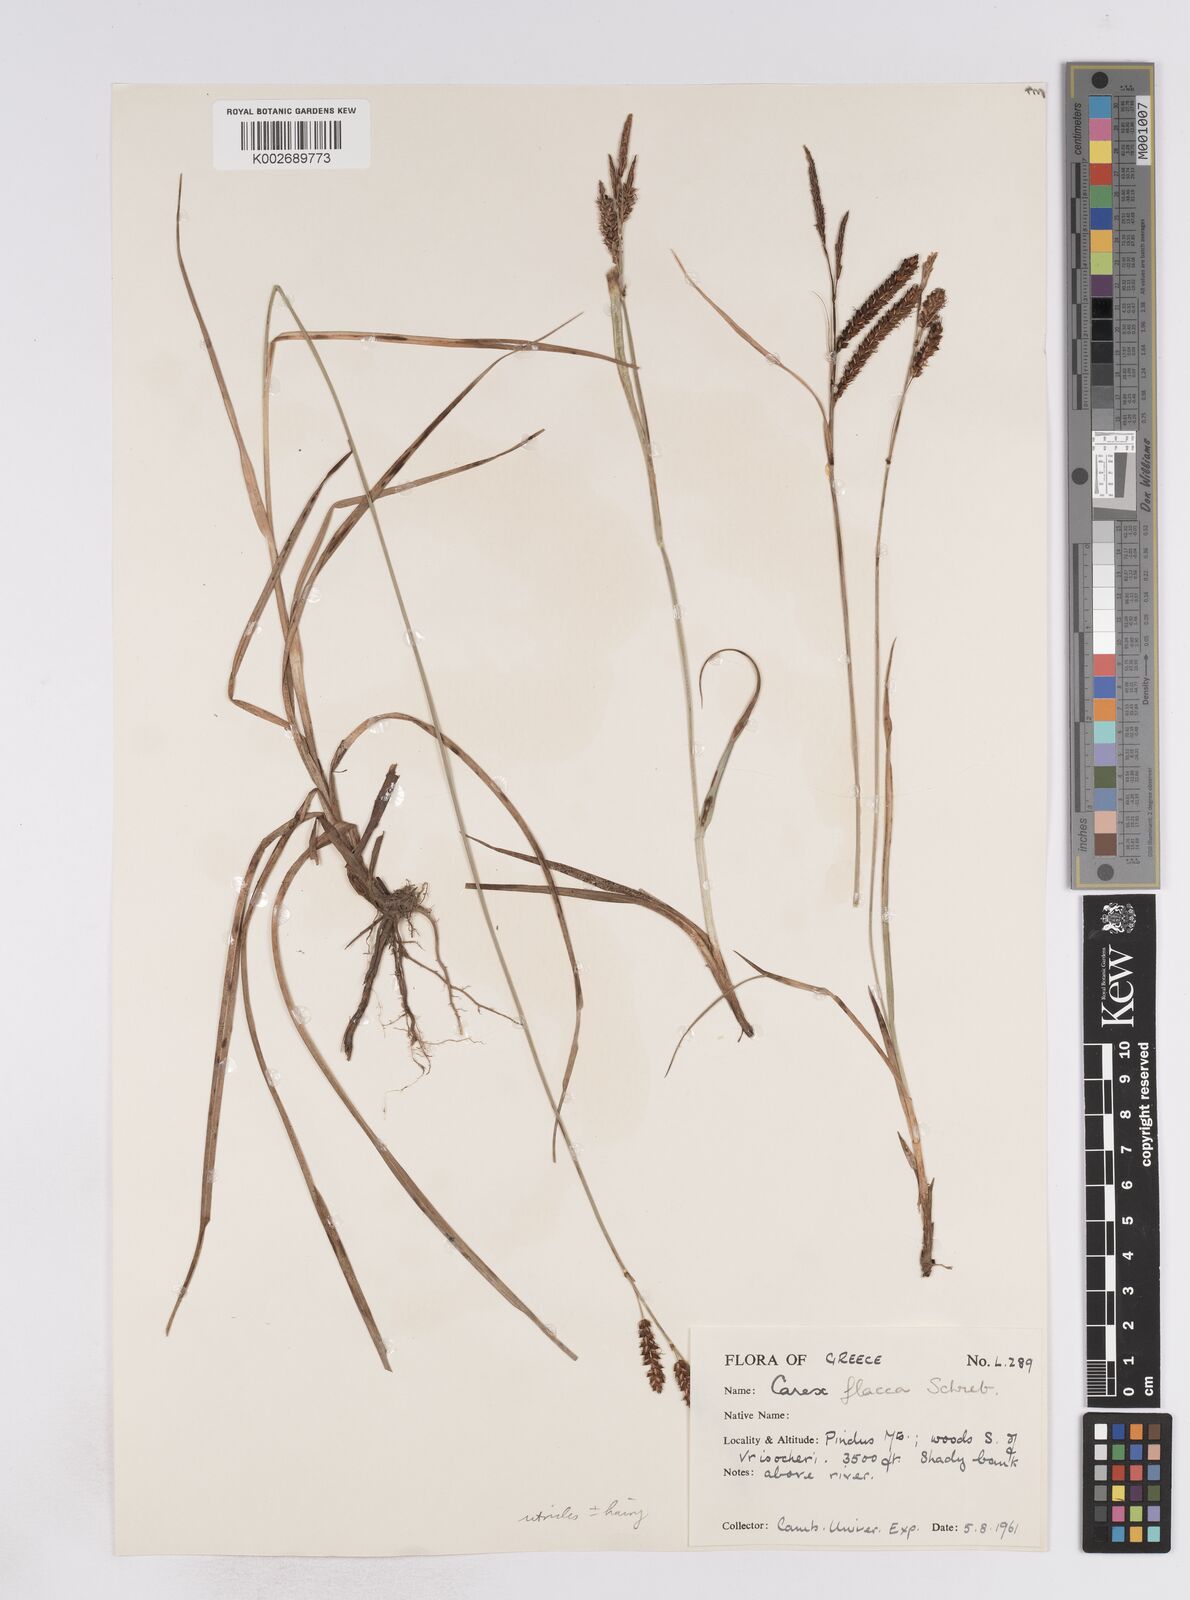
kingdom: Plantae
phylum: Tracheophyta
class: Liliopsida
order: Poales
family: Cyperaceae
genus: Carex
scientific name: Carex flacca
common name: Glaucous sedge
